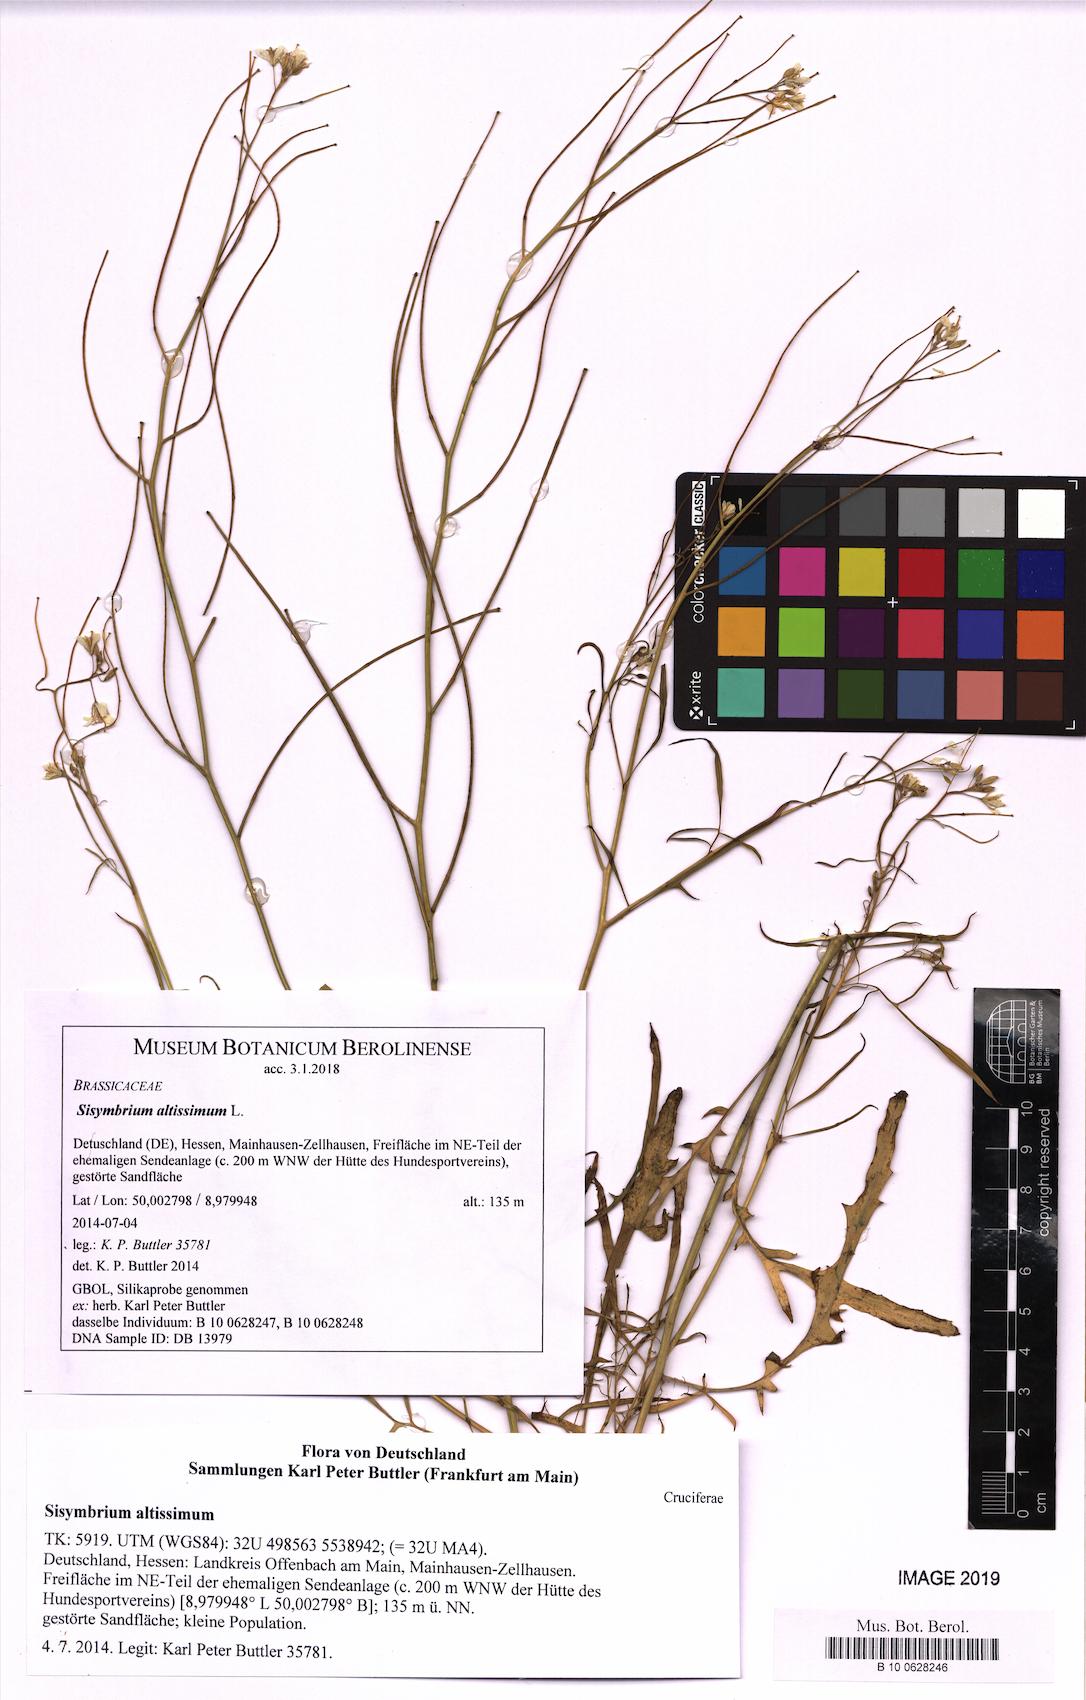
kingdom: Plantae
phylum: Tracheophyta
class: Magnoliopsida
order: Brassicales
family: Brassicaceae
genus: Sisymbrium
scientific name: Sisymbrium altissimum
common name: Tall rocket
